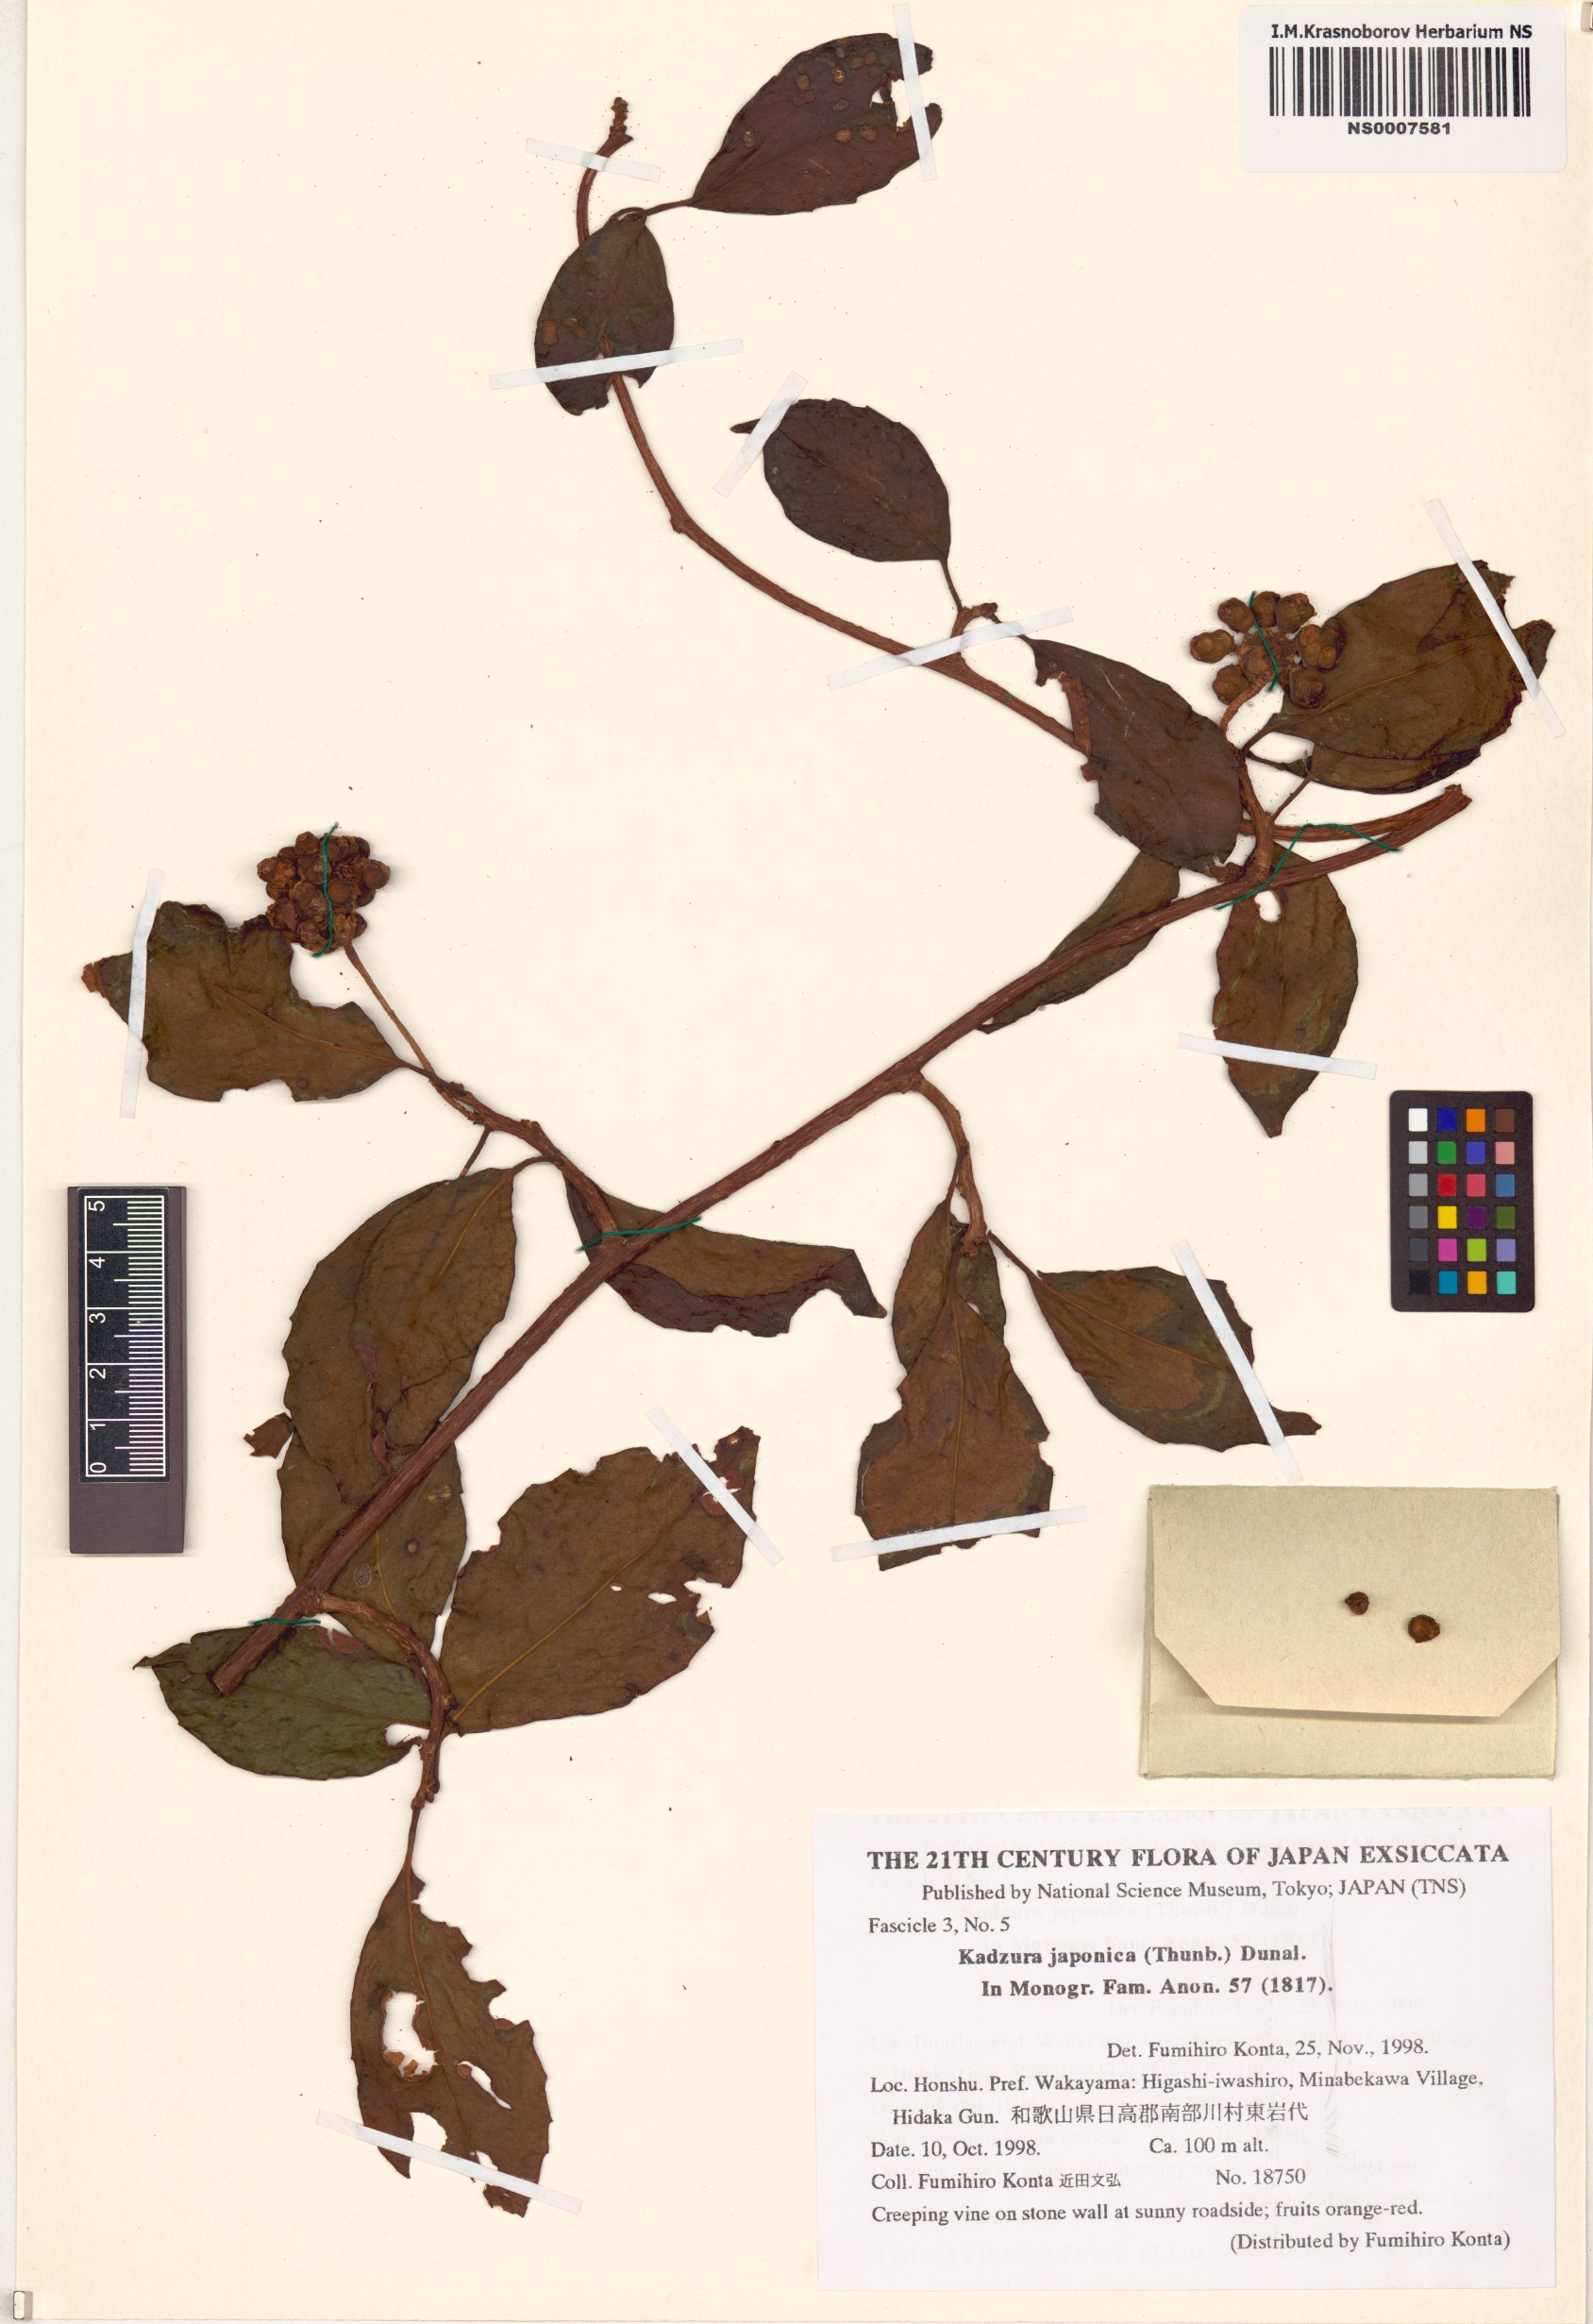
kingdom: Plantae
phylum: Tracheophyta
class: Magnoliopsida
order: Austrobaileyales
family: Schisandraceae
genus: Kadsura
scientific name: Kadsura japonica
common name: Japanese kadsura
